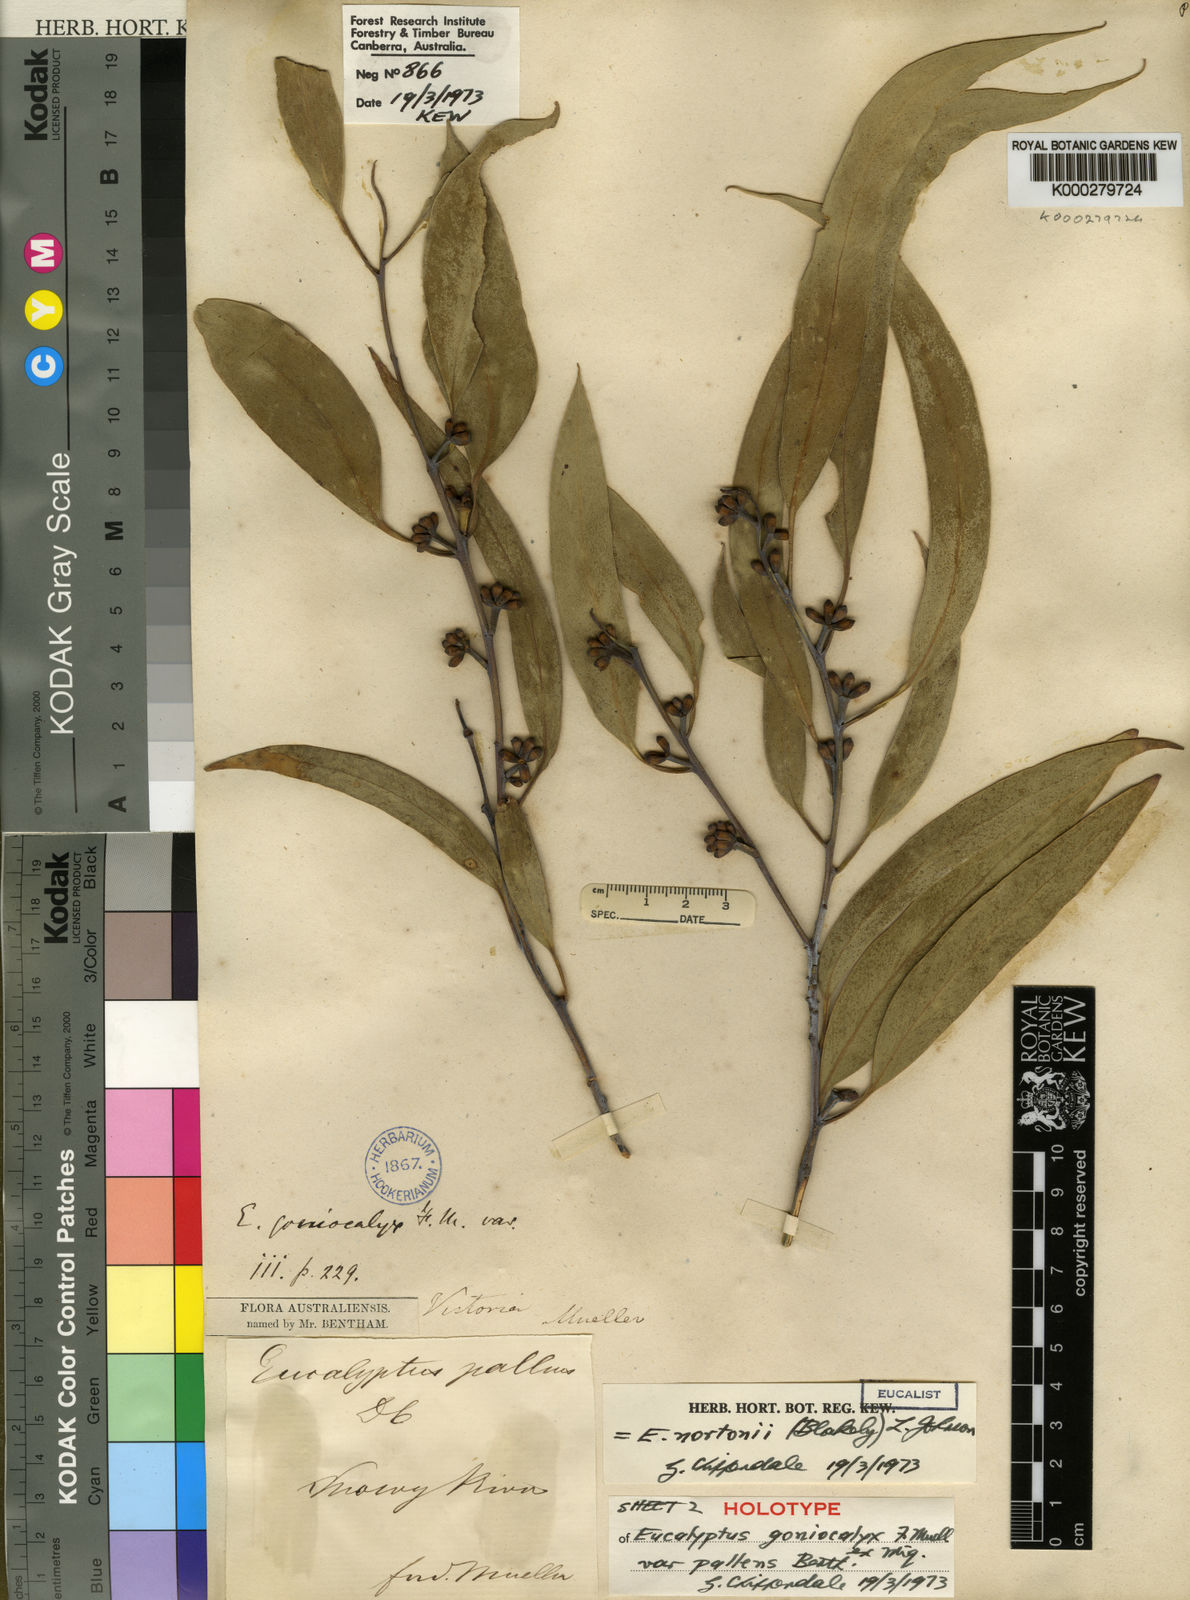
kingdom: Plantae
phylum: Tracheophyta
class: Magnoliopsida
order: Myrtales
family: Myrtaceae
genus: Eucalyptus
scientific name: Eucalyptus nortonii
